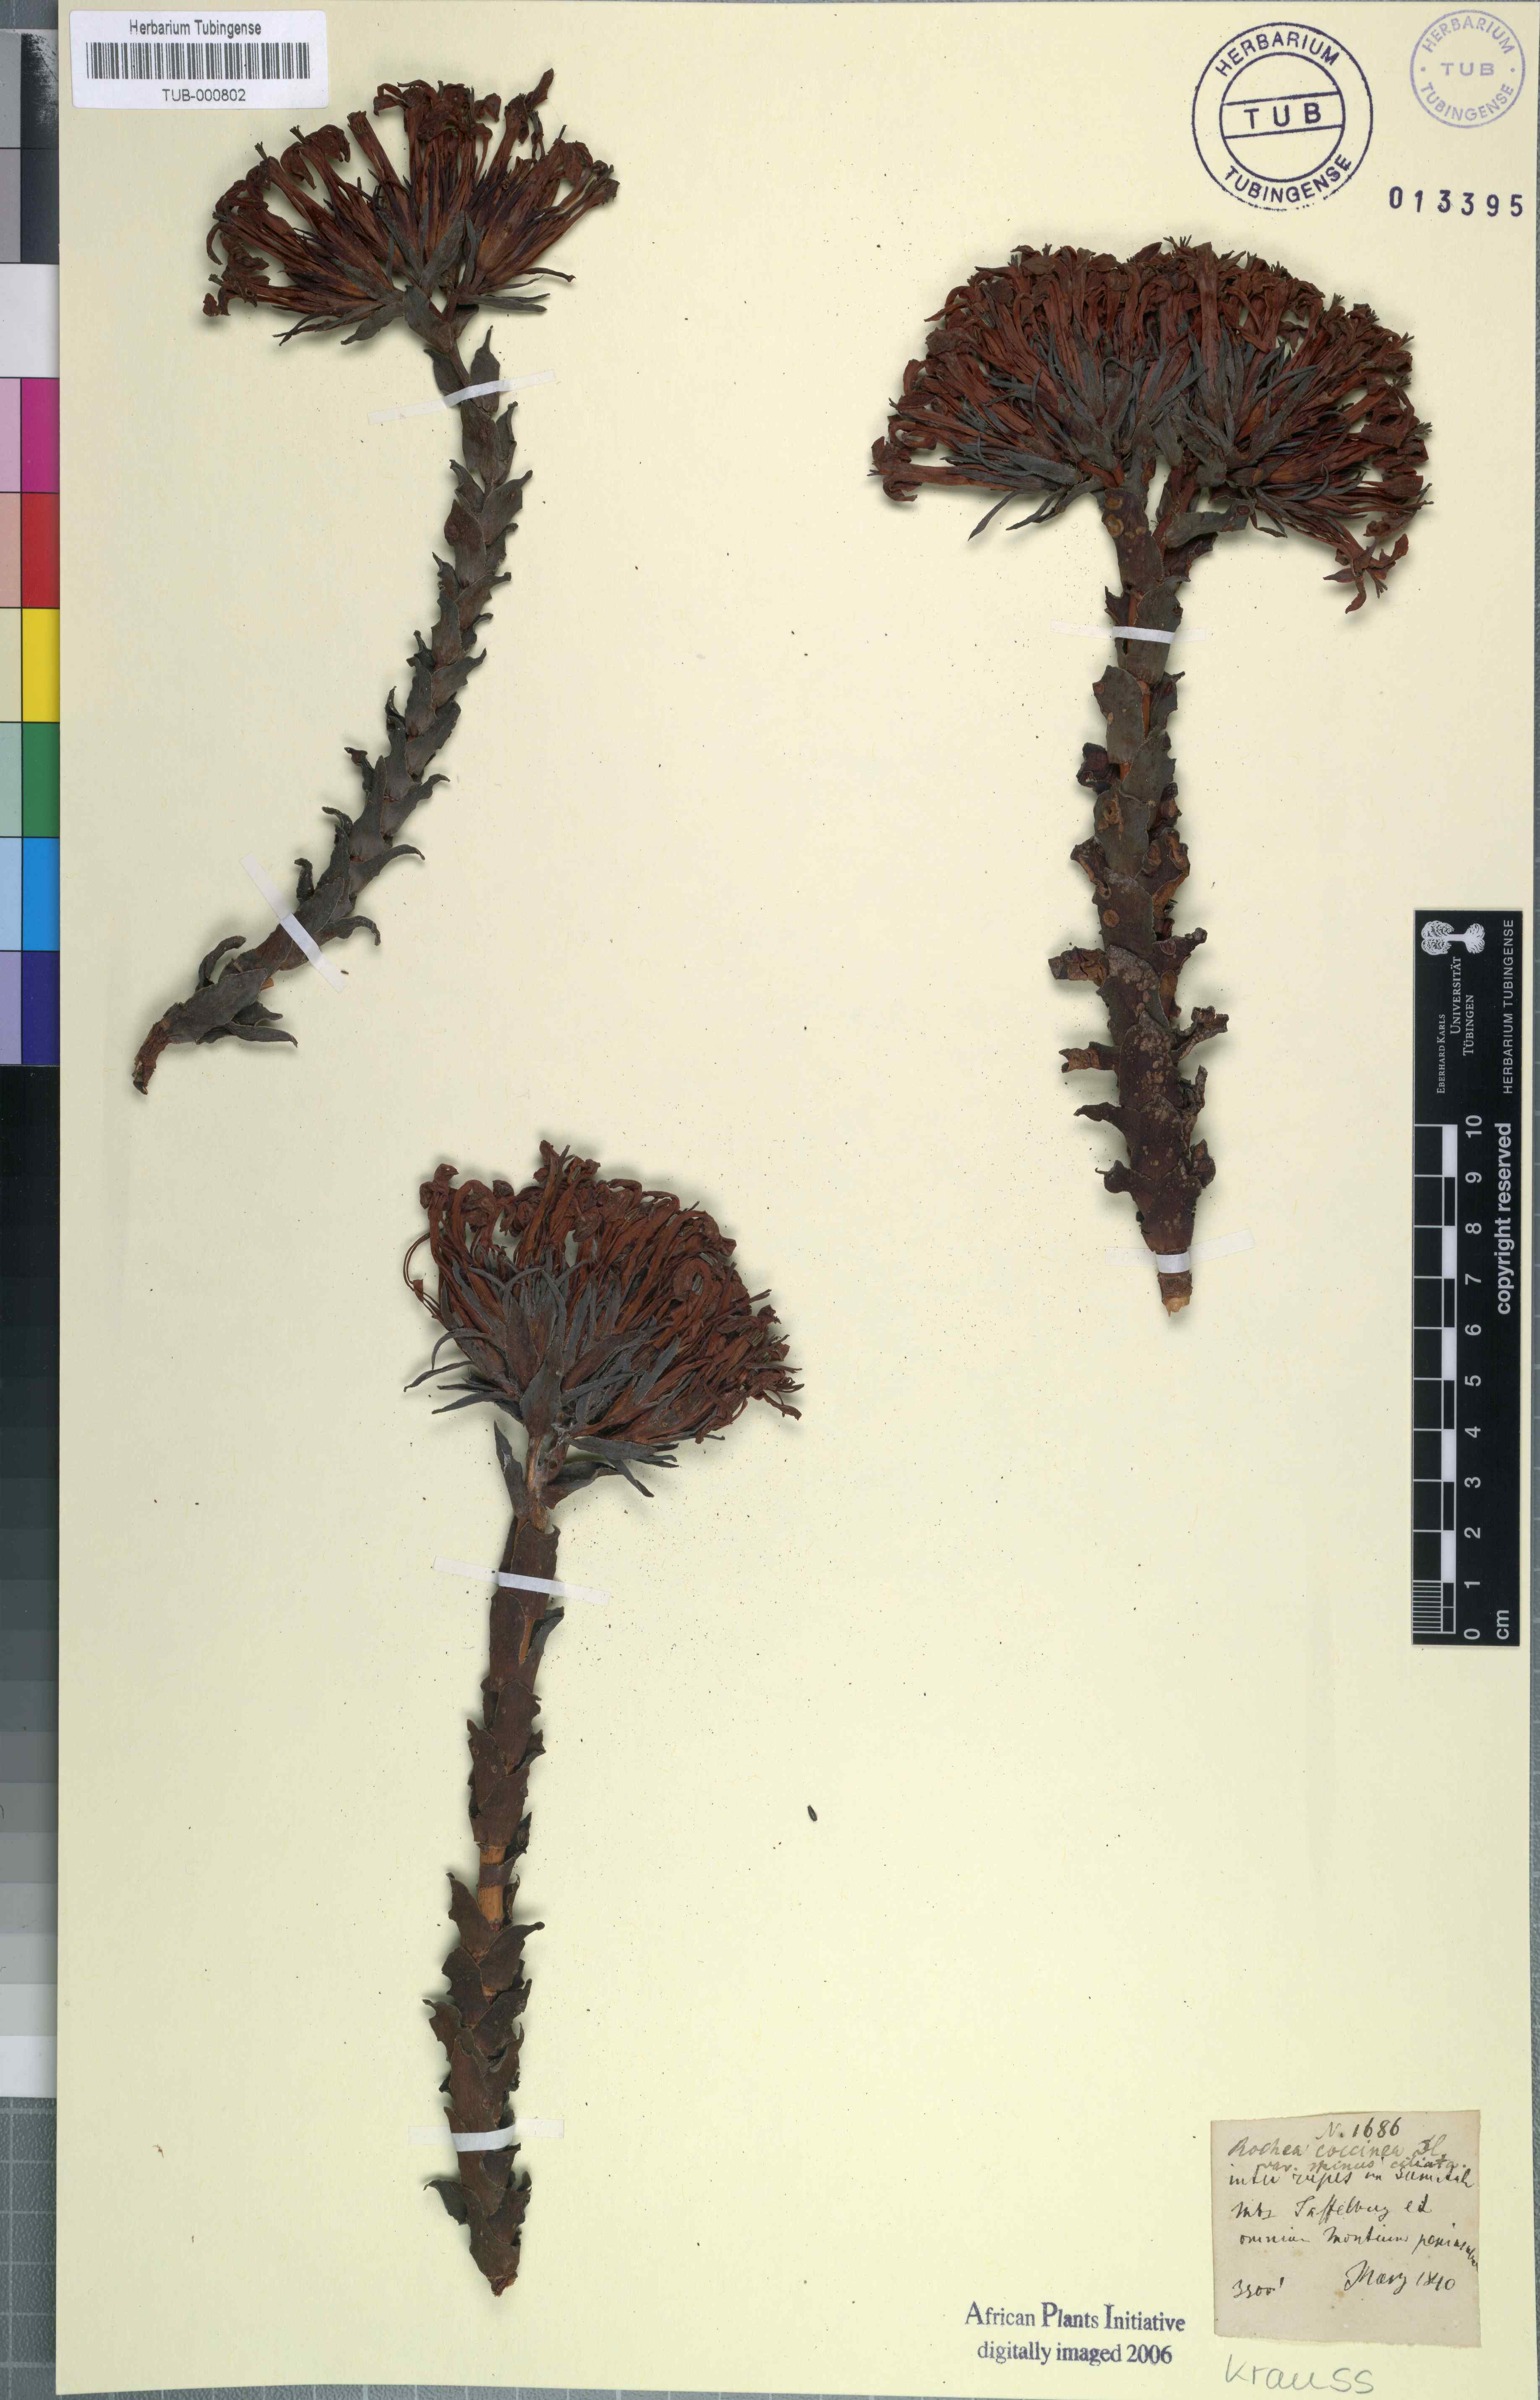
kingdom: Plantae
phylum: Tracheophyta
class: Magnoliopsida
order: Saxifragales
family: Crassulaceae
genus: Crassula
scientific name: Crassula coccinea
